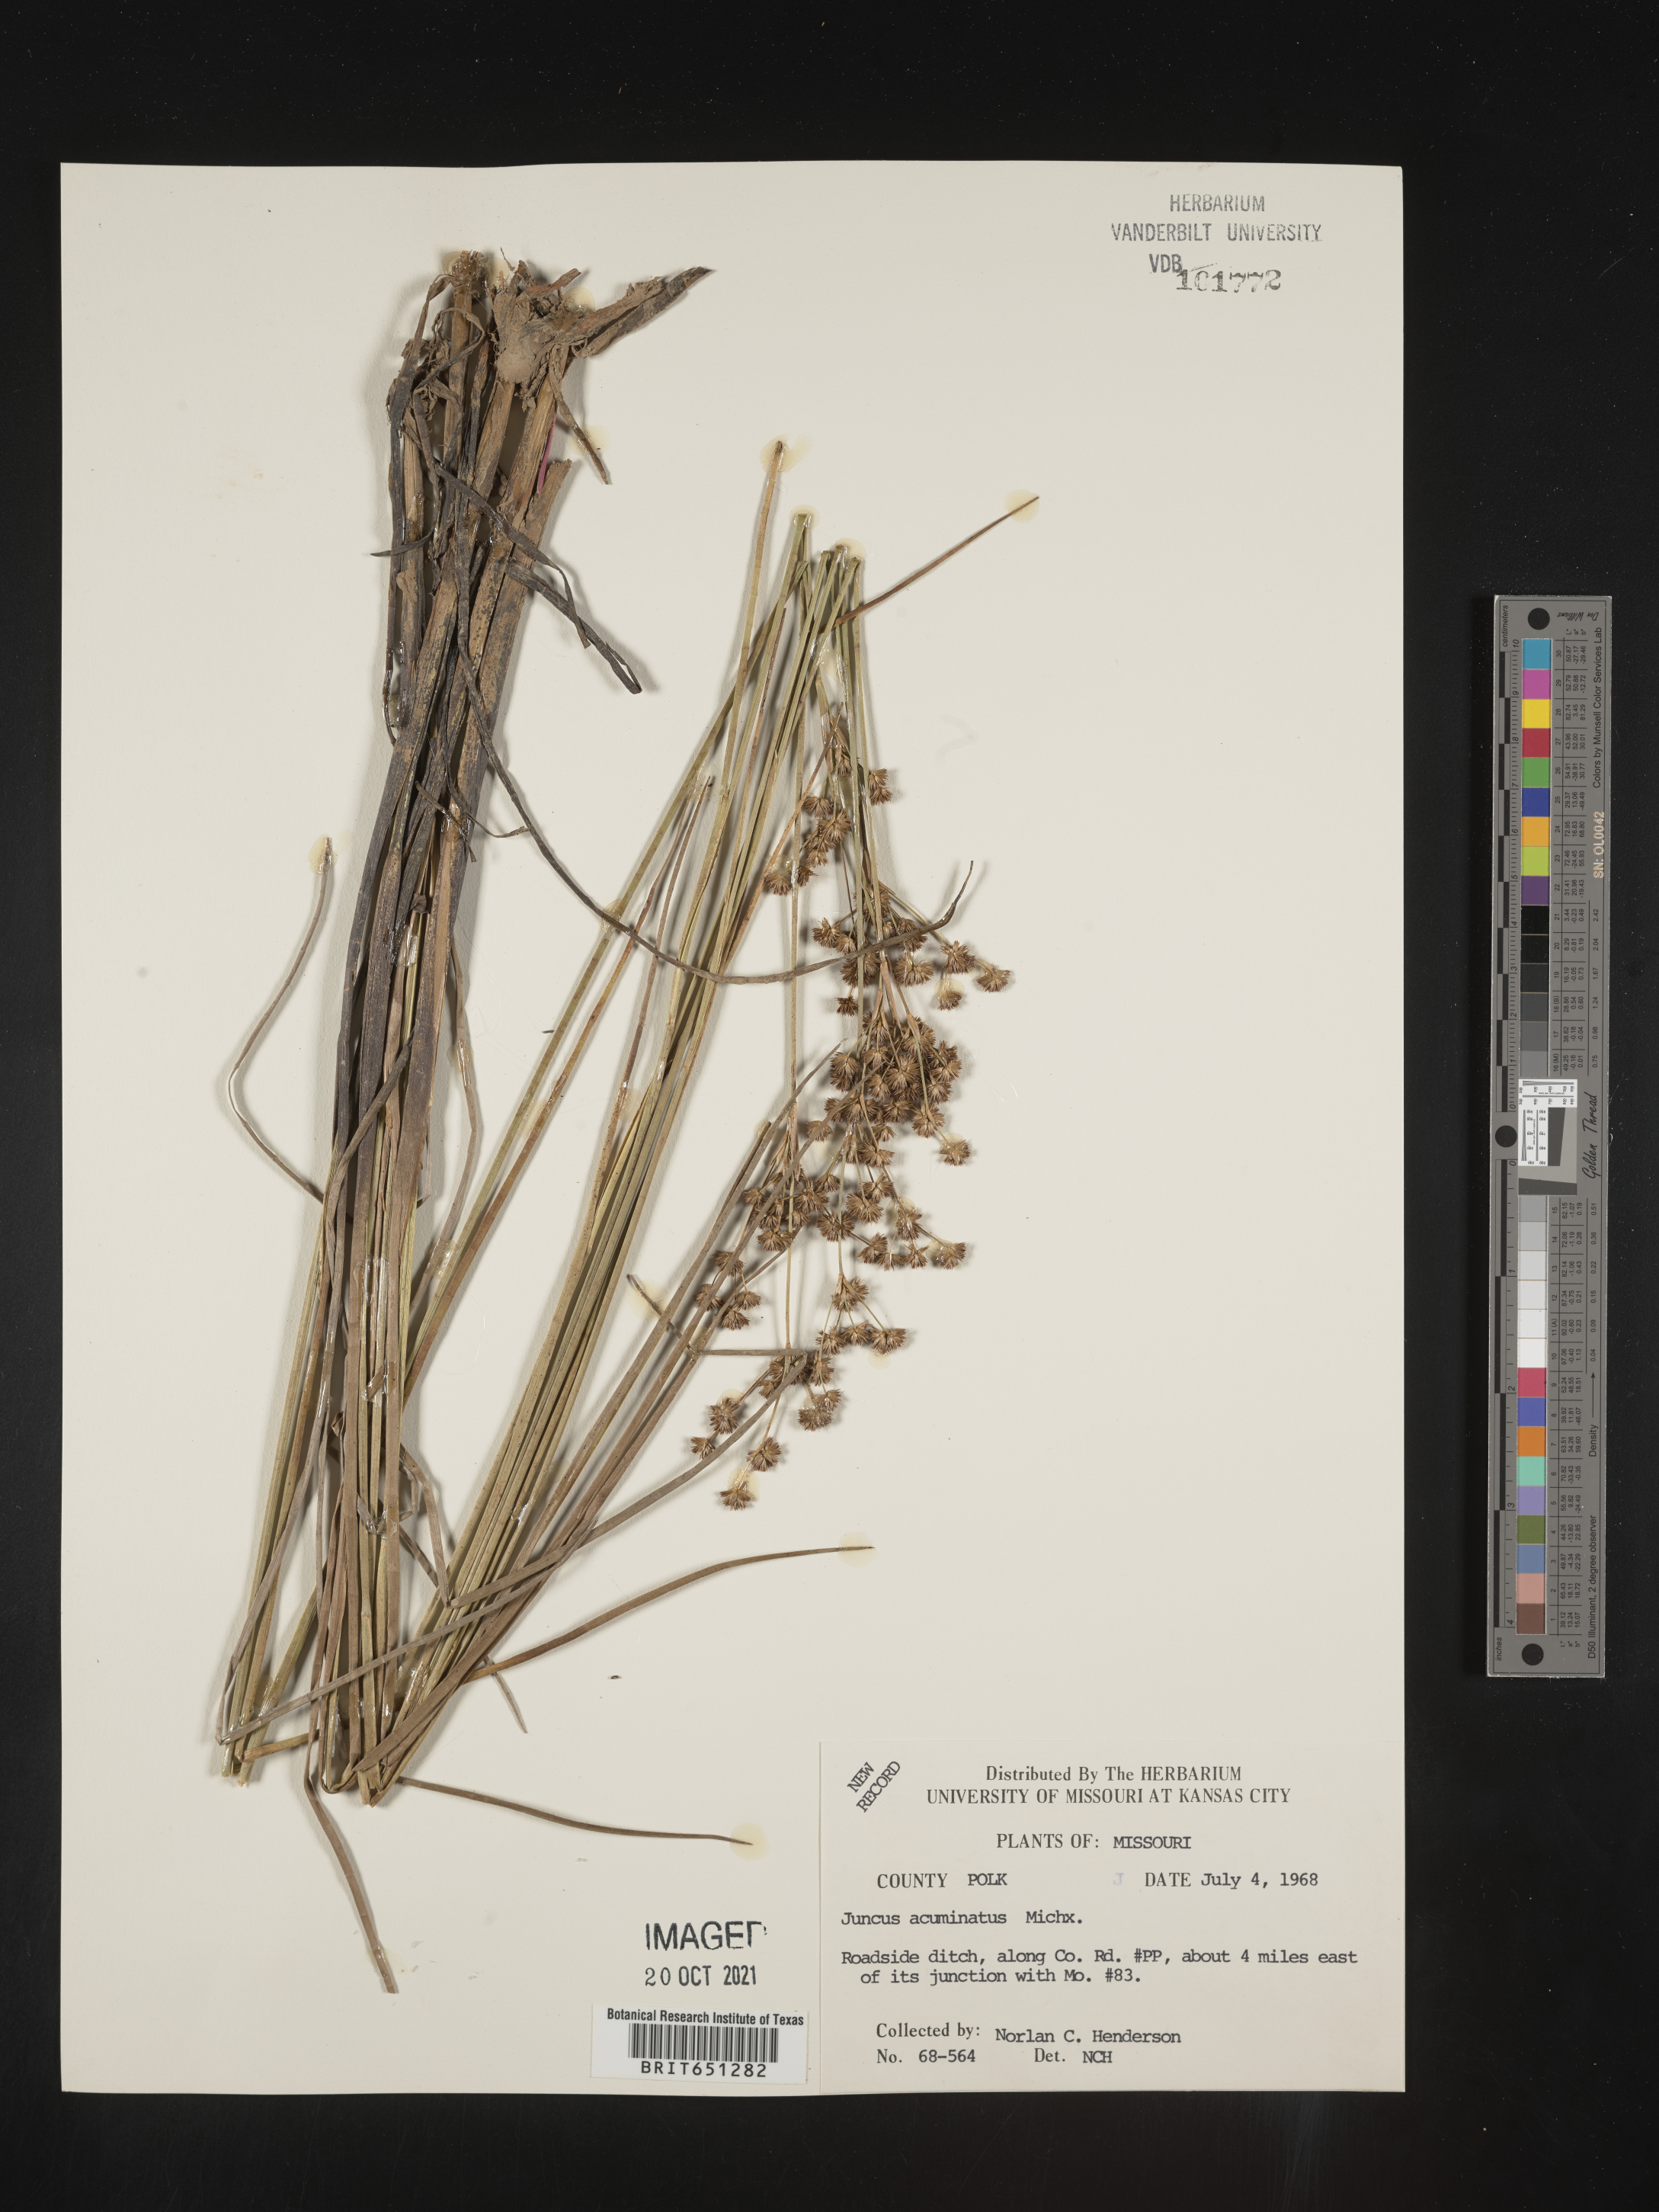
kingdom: Plantae
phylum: Tracheophyta
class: Liliopsida
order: Poales
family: Juncaceae
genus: Juncus
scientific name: Juncus acuminatus
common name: Knotty-leaved rush
